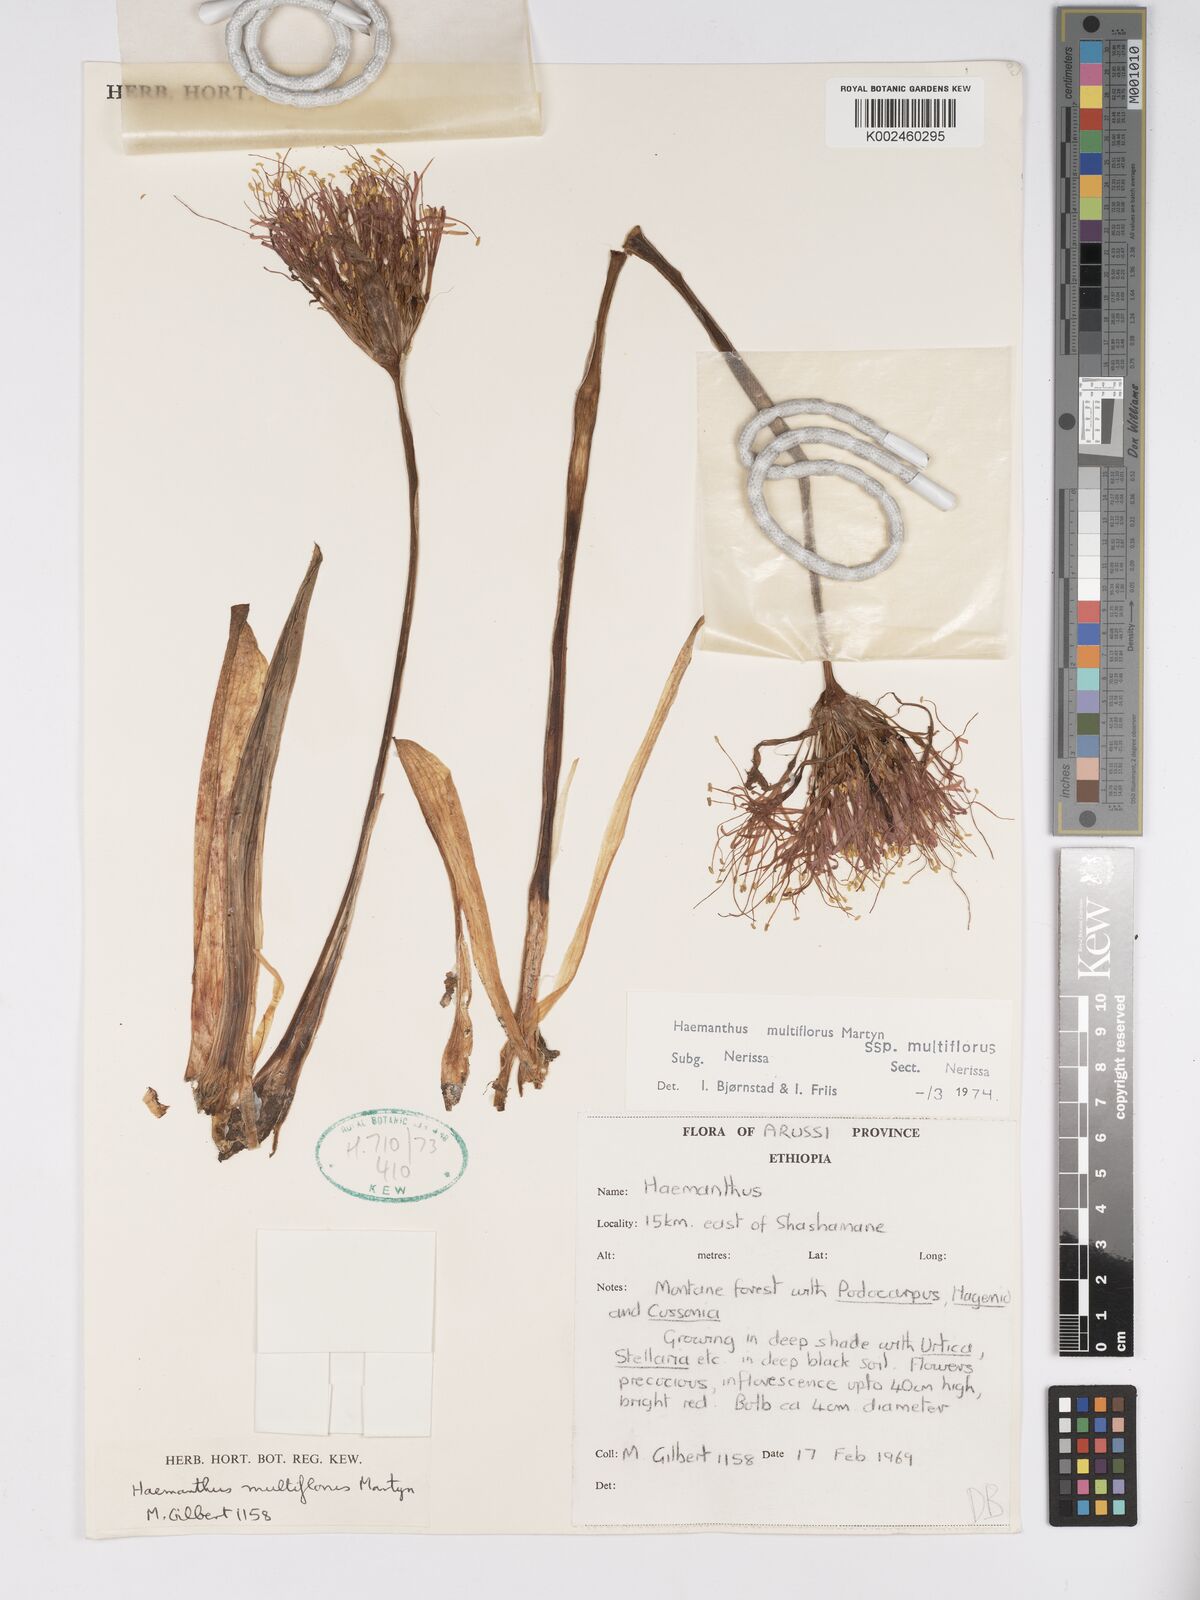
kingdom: Plantae
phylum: Tracheophyta
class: Liliopsida
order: Asparagales
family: Amaryllidaceae
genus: Scadoxus
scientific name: Scadoxus multiflorus
